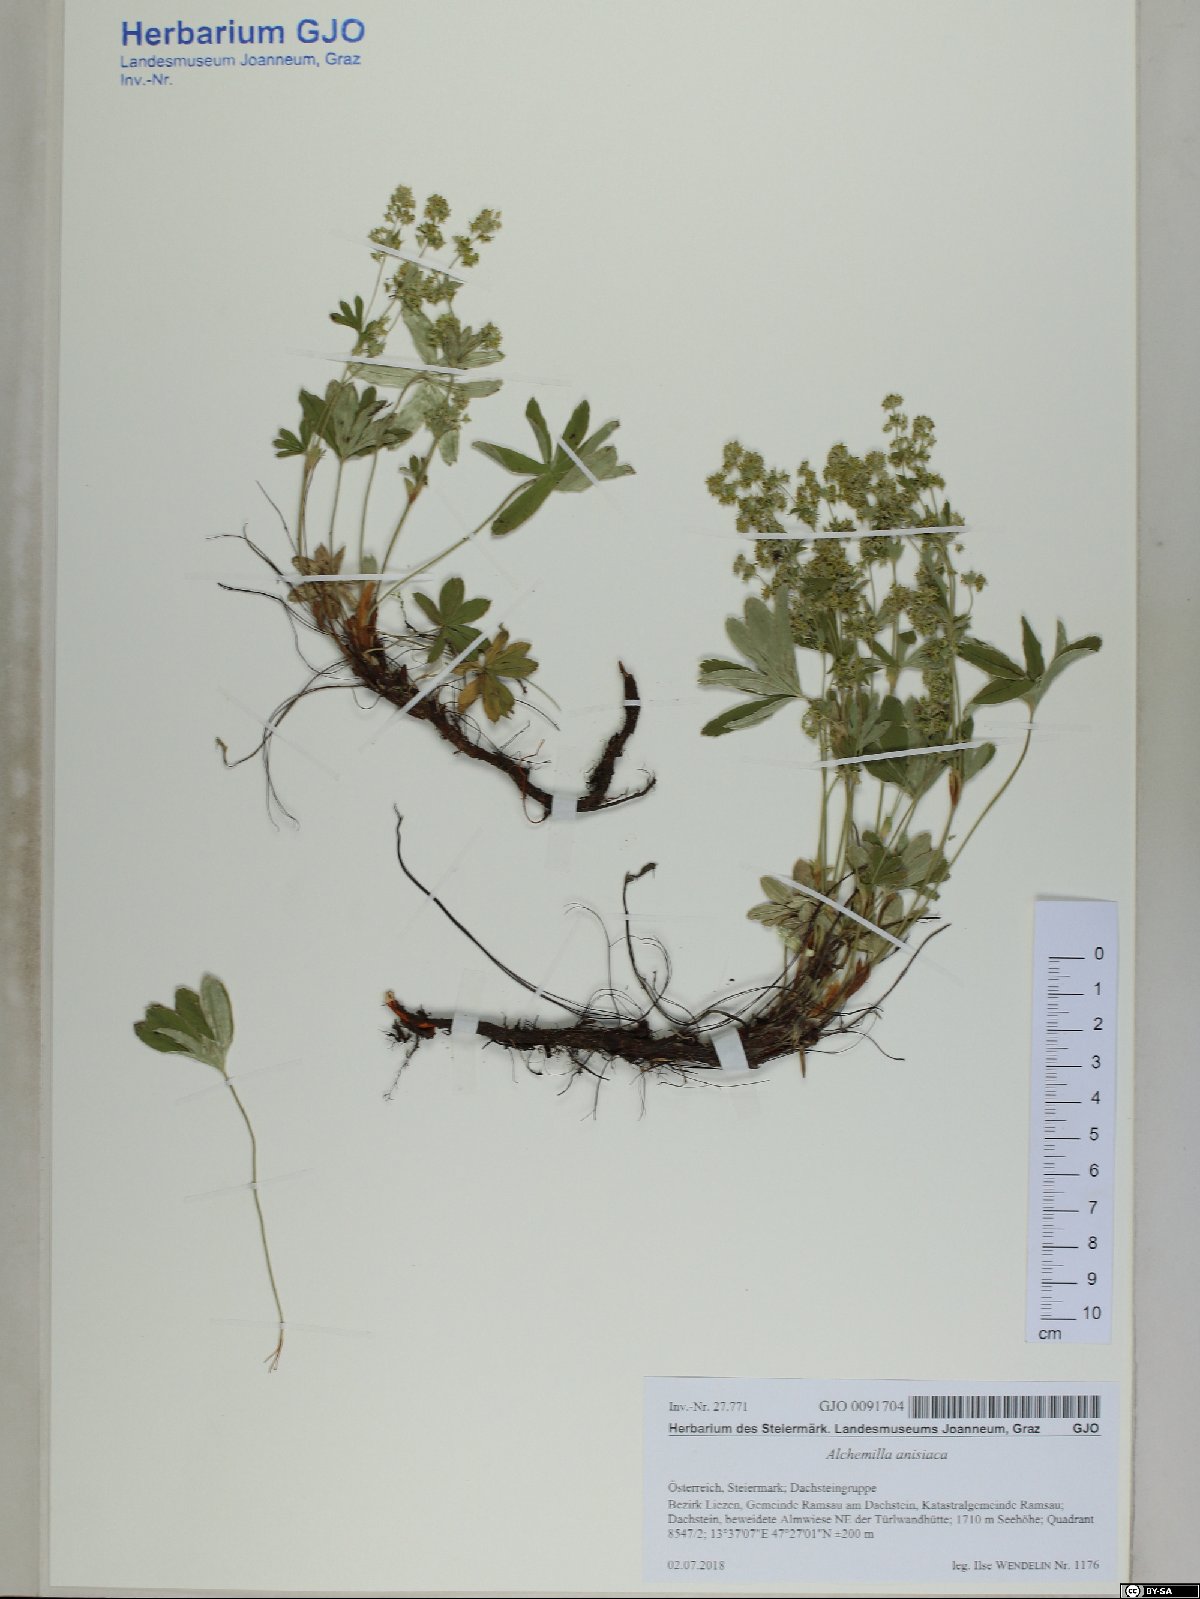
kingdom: Plantae
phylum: Tracheophyta
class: Magnoliopsida
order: Rosales
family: Rosaceae
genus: Alchemilla
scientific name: Alchemilla anisiaca
